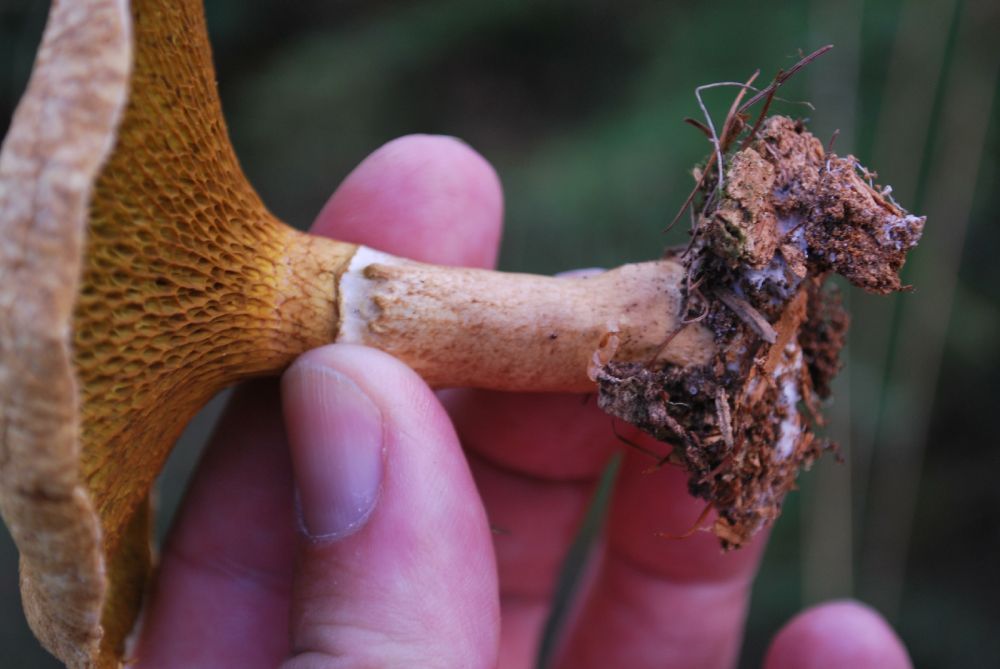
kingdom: Fungi
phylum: Basidiomycota
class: Agaricomycetes
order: Boletales
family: Suillaceae
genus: Suillus
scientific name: Suillus cavipes
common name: hulstokket slimrørhat
